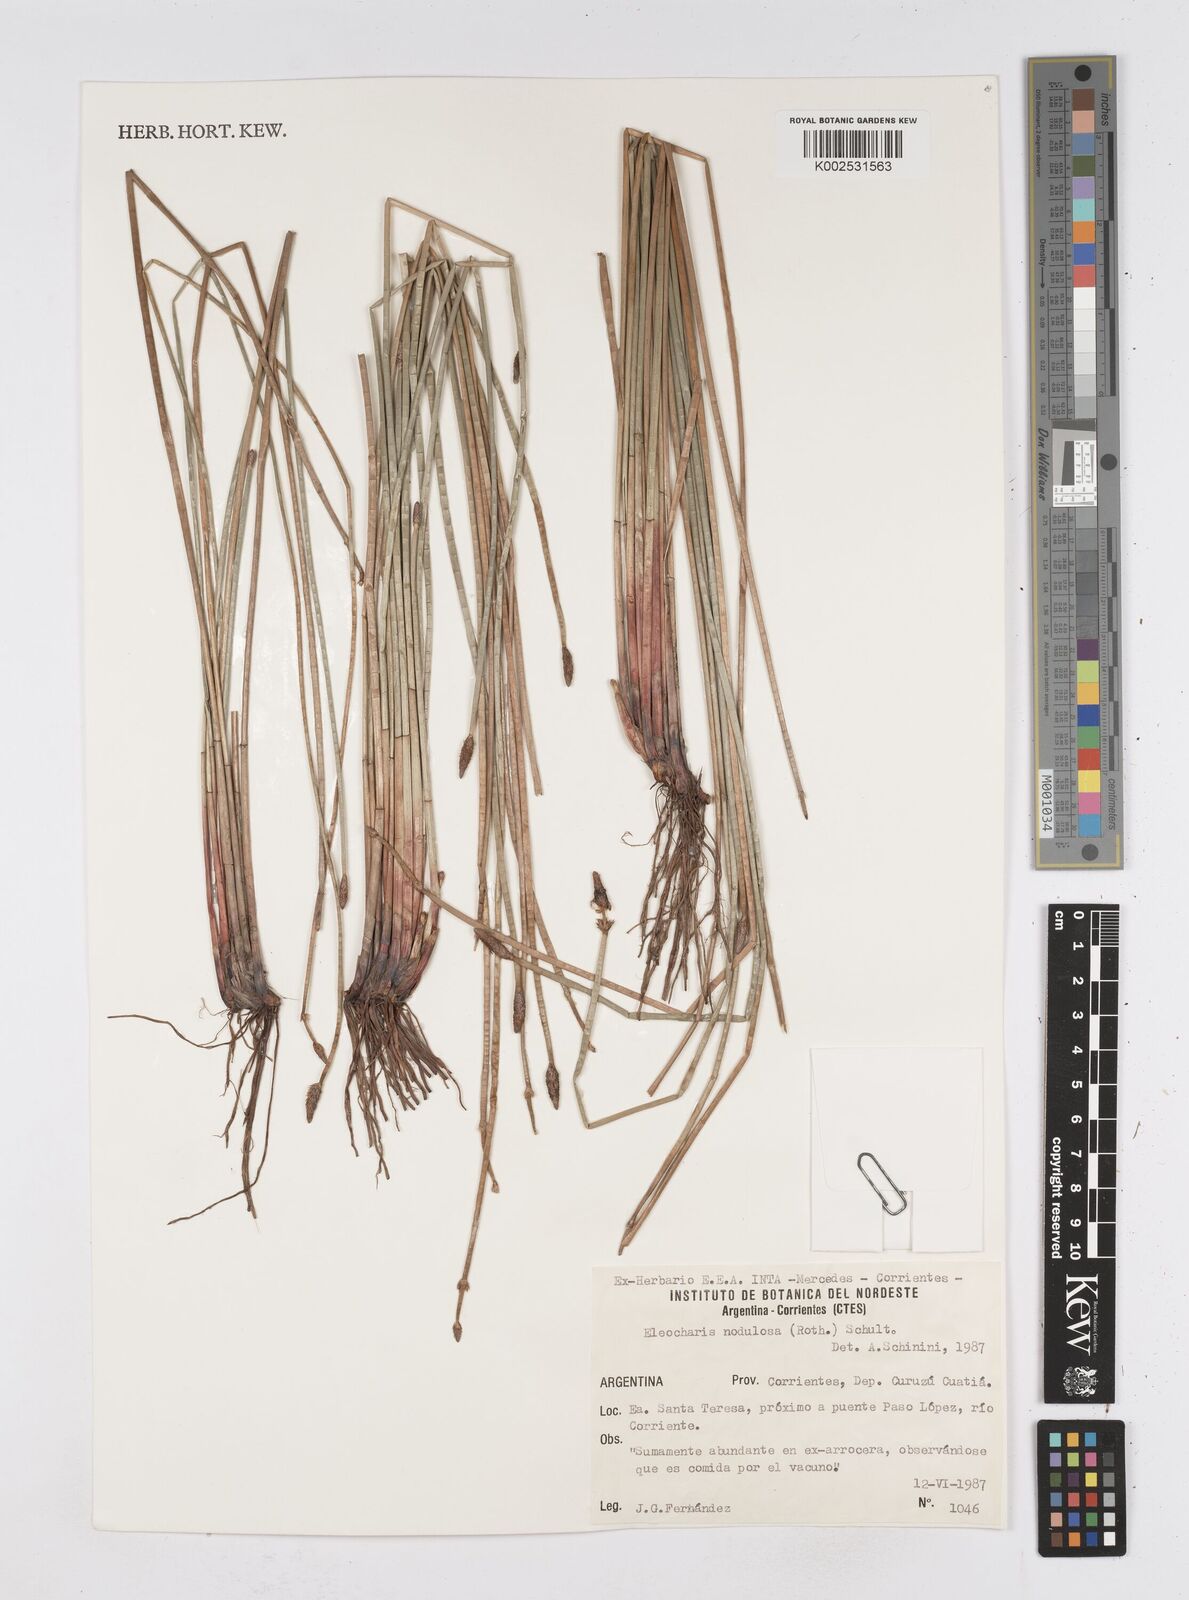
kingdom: Plantae
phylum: Tracheophyta
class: Liliopsida
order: Poales
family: Cyperaceae
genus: Eleocharis
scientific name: Eleocharis montana
